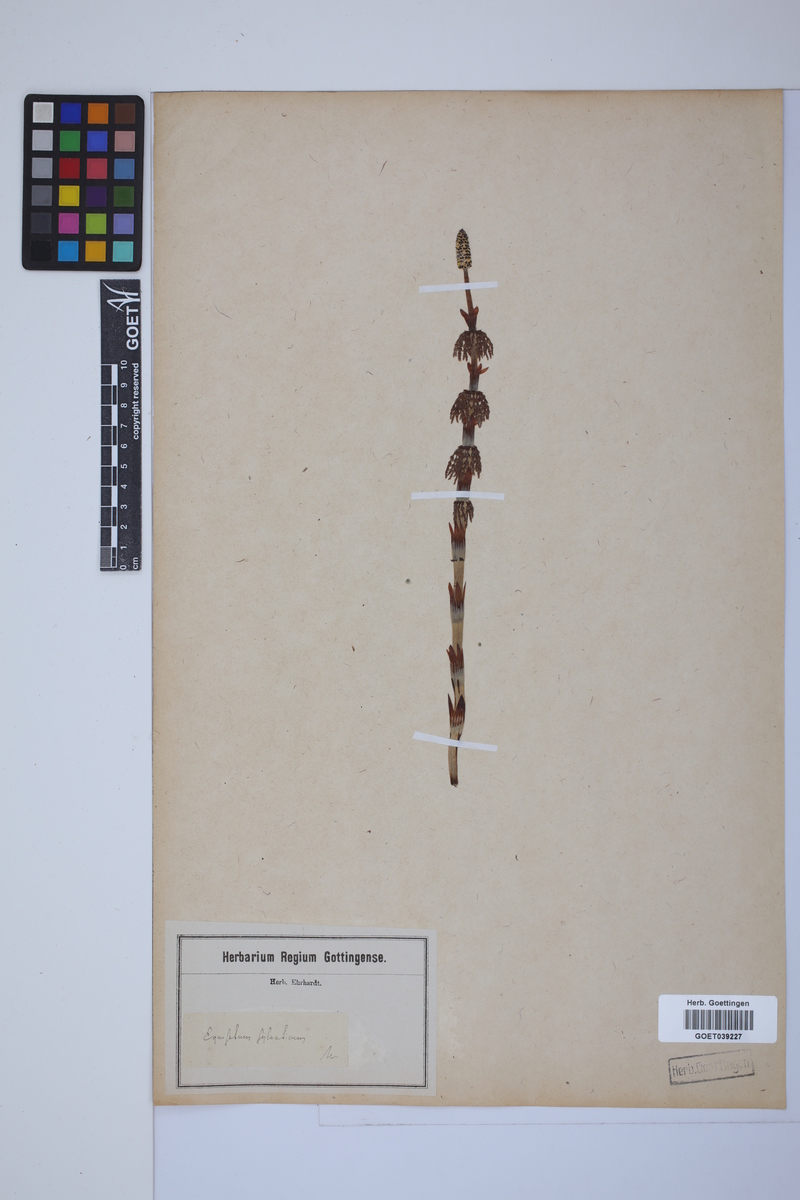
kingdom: Plantae
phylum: Tracheophyta
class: Polypodiopsida
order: Equisetales
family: Equisetaceae
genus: Equisetum
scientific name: Equisetum sylvaticum
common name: Wood horsetail
